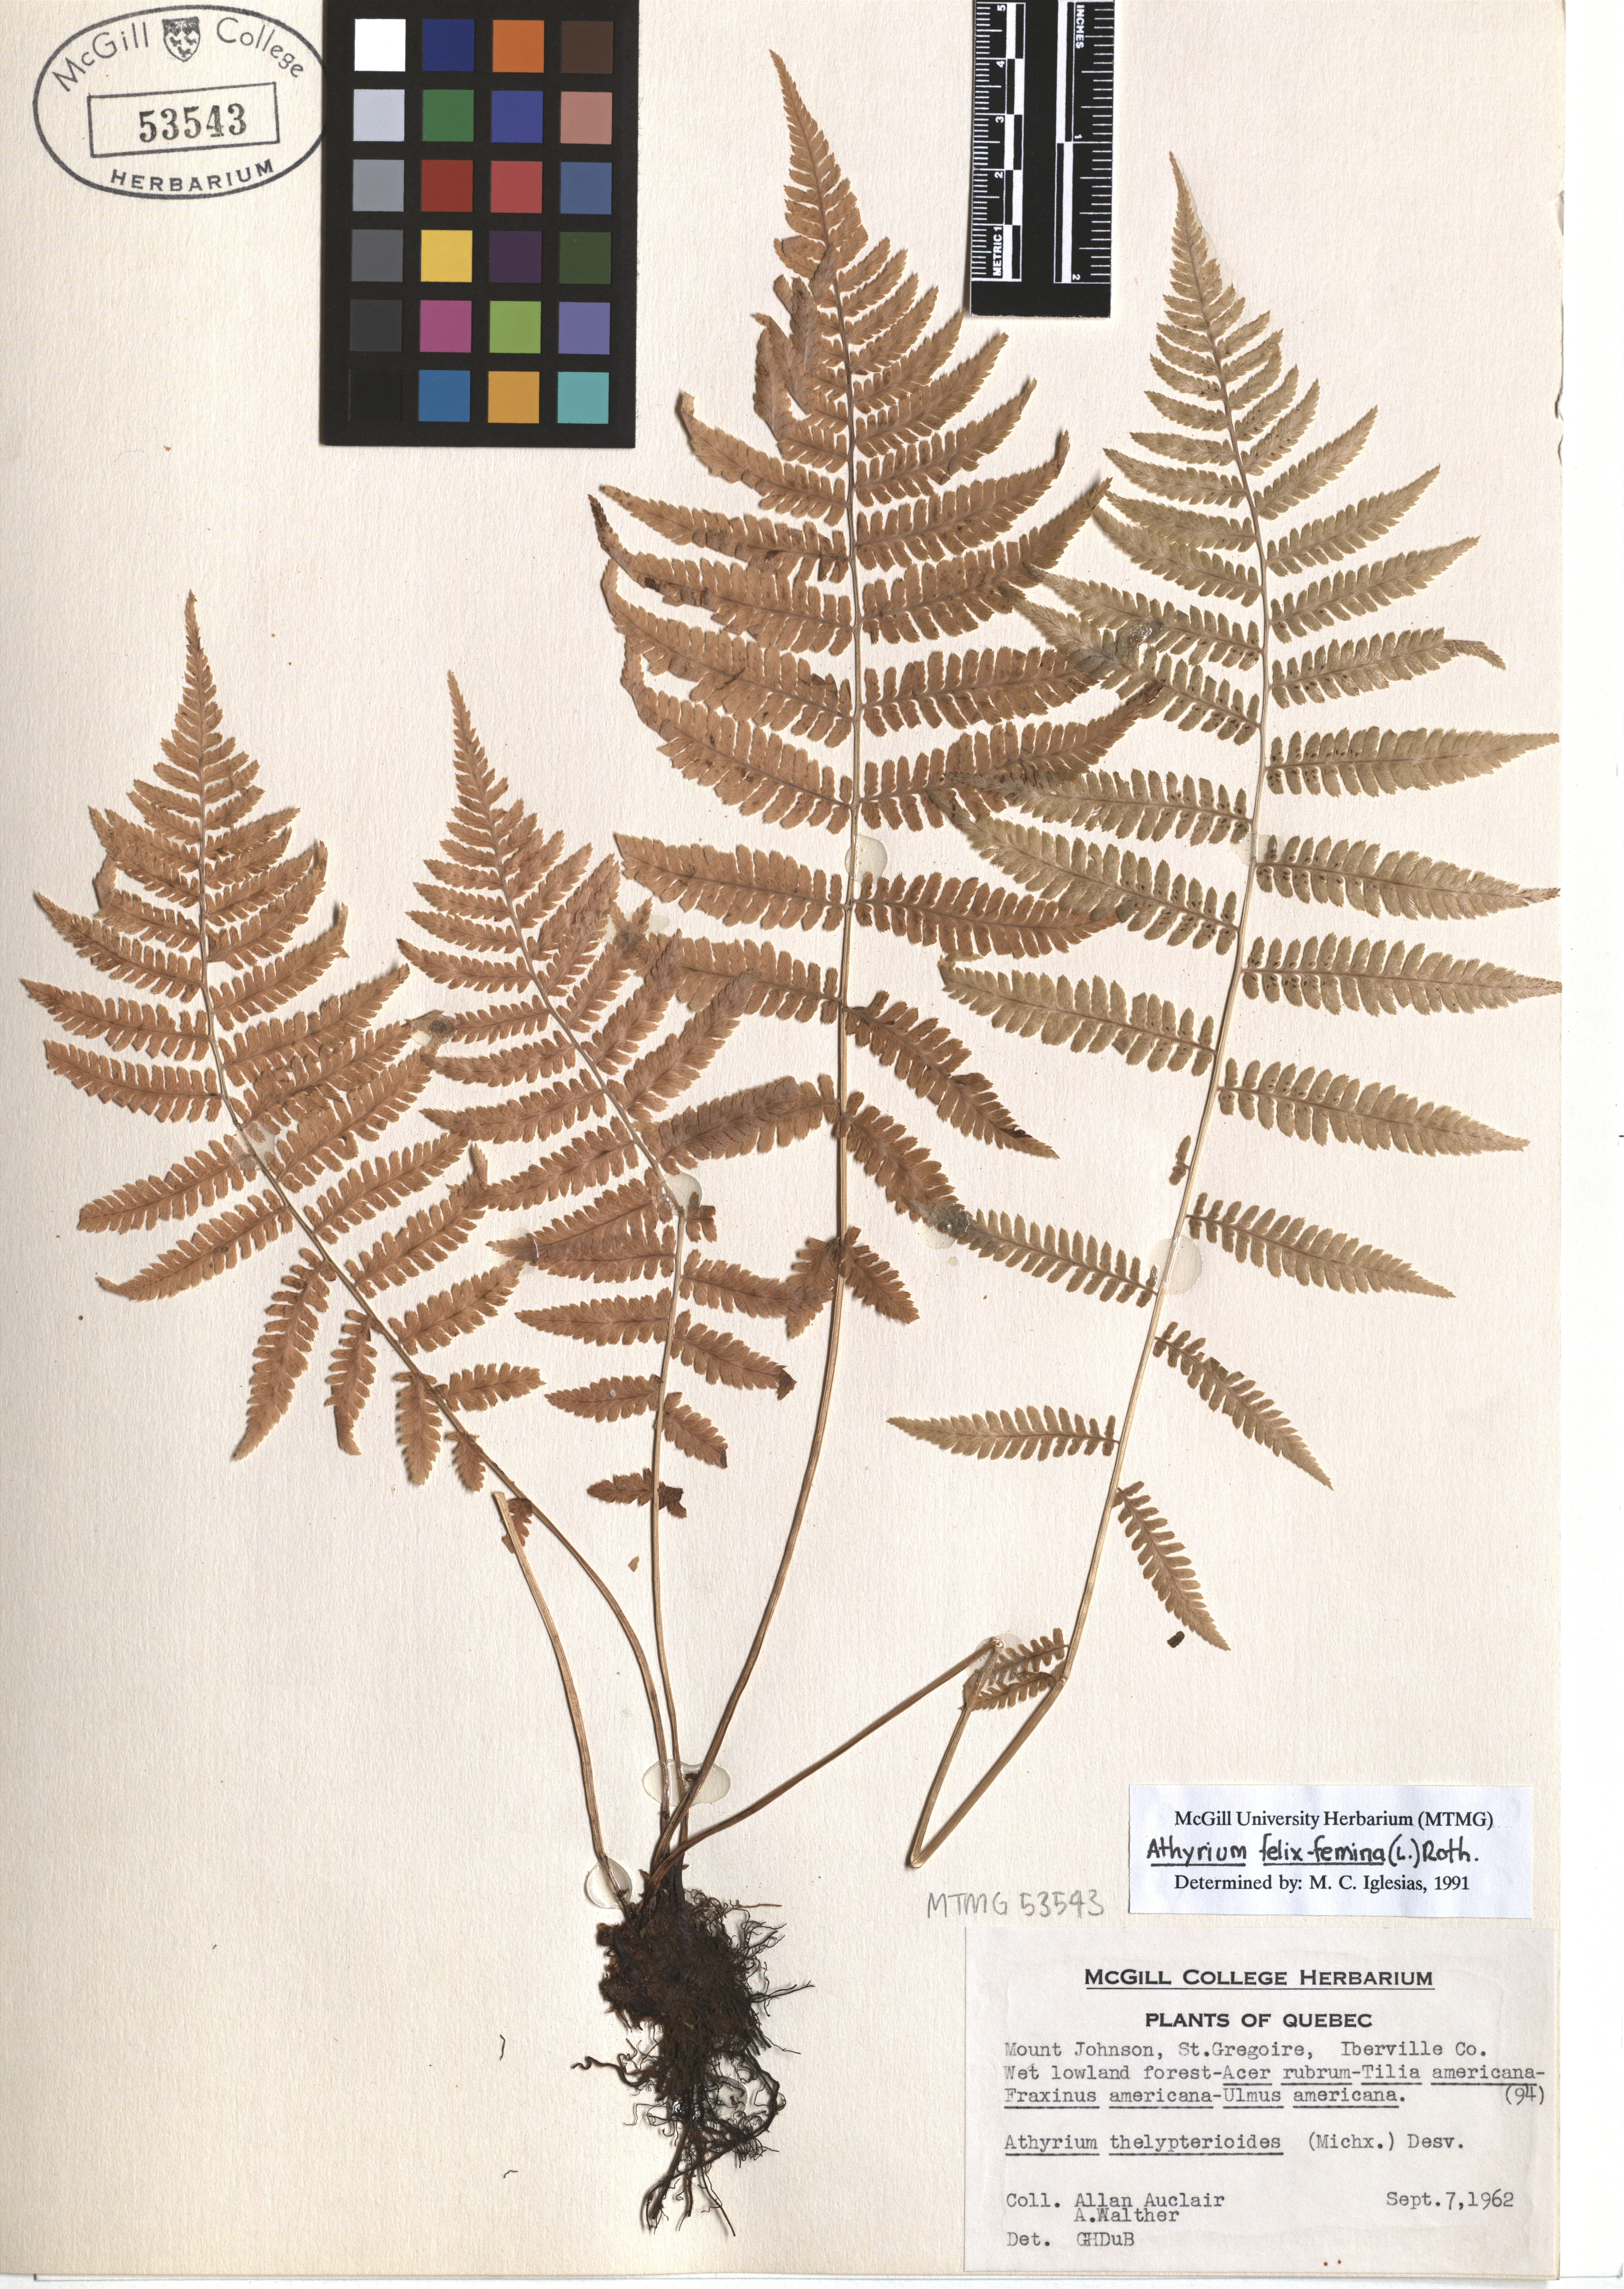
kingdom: Plantae
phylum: Tracheophyta
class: Polypodiopsida
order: Polypodiales
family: Athyriaceae
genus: Athyrium
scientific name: Athyrium filix-femina
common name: Lady fern
